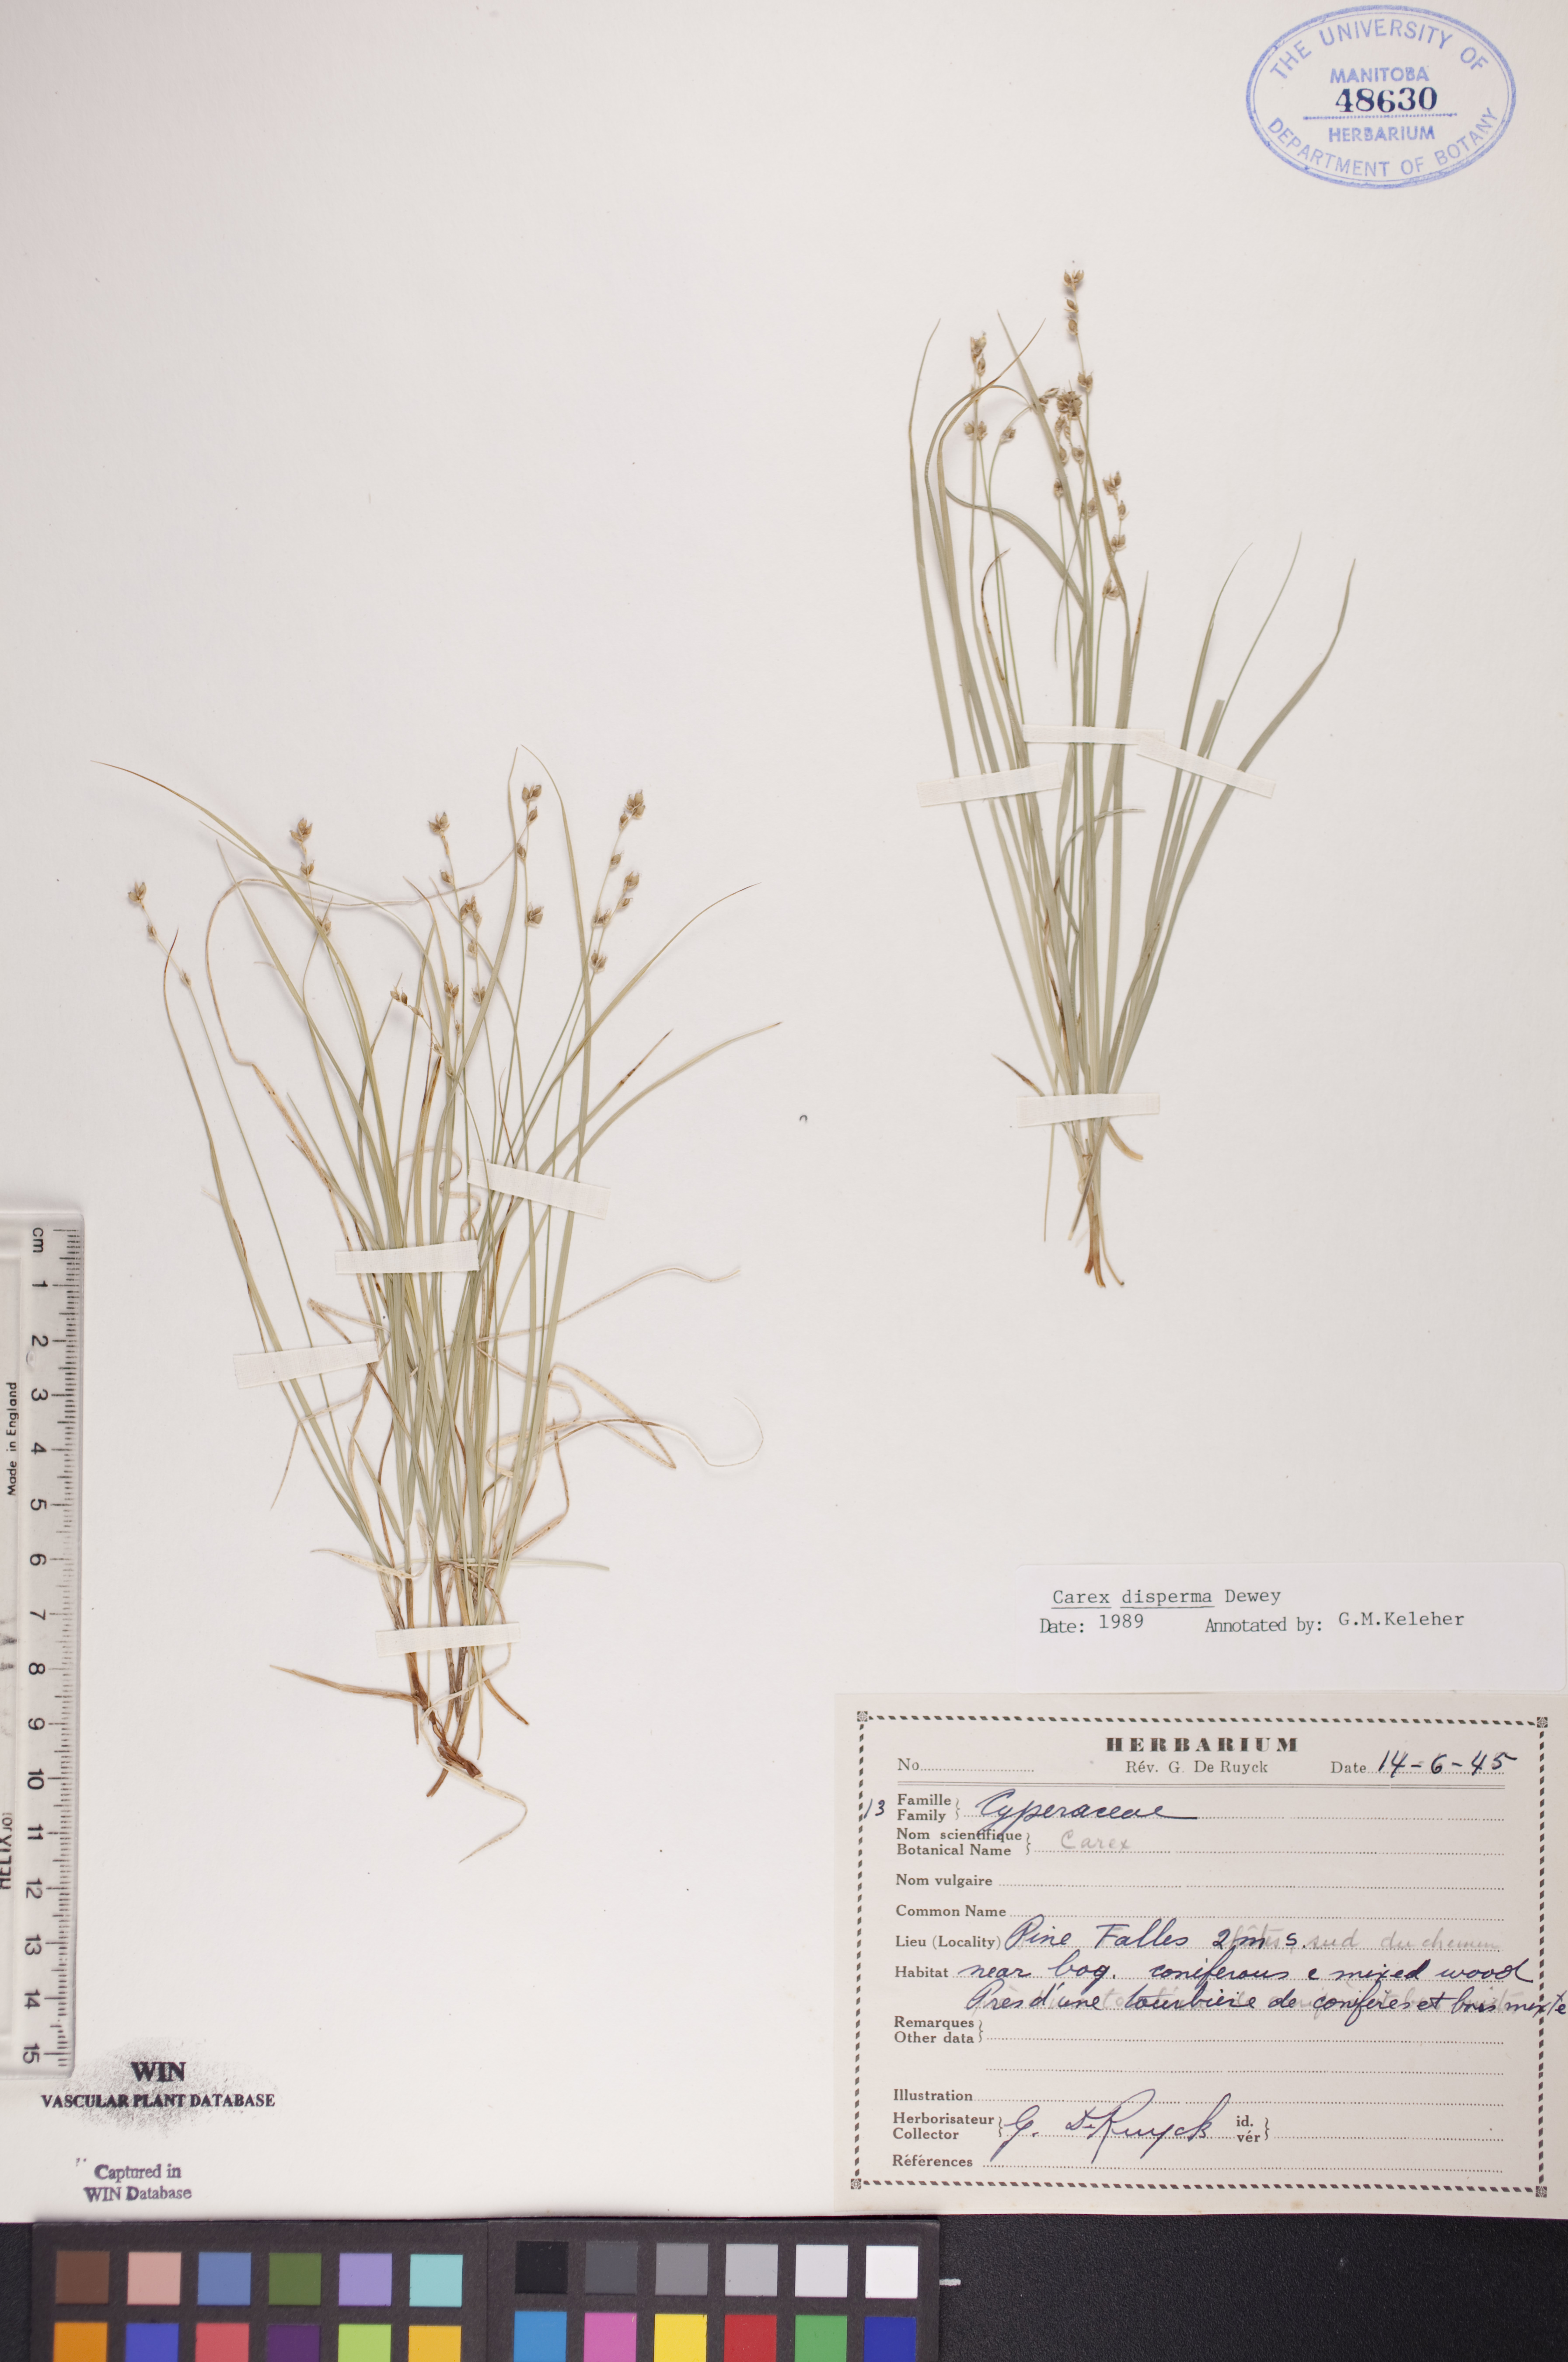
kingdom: Plantae
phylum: Tracheophyta
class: Liliopsida
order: Poales
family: Cyperaceae
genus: Carex
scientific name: Carex disperma
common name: Short-leaved sedge
